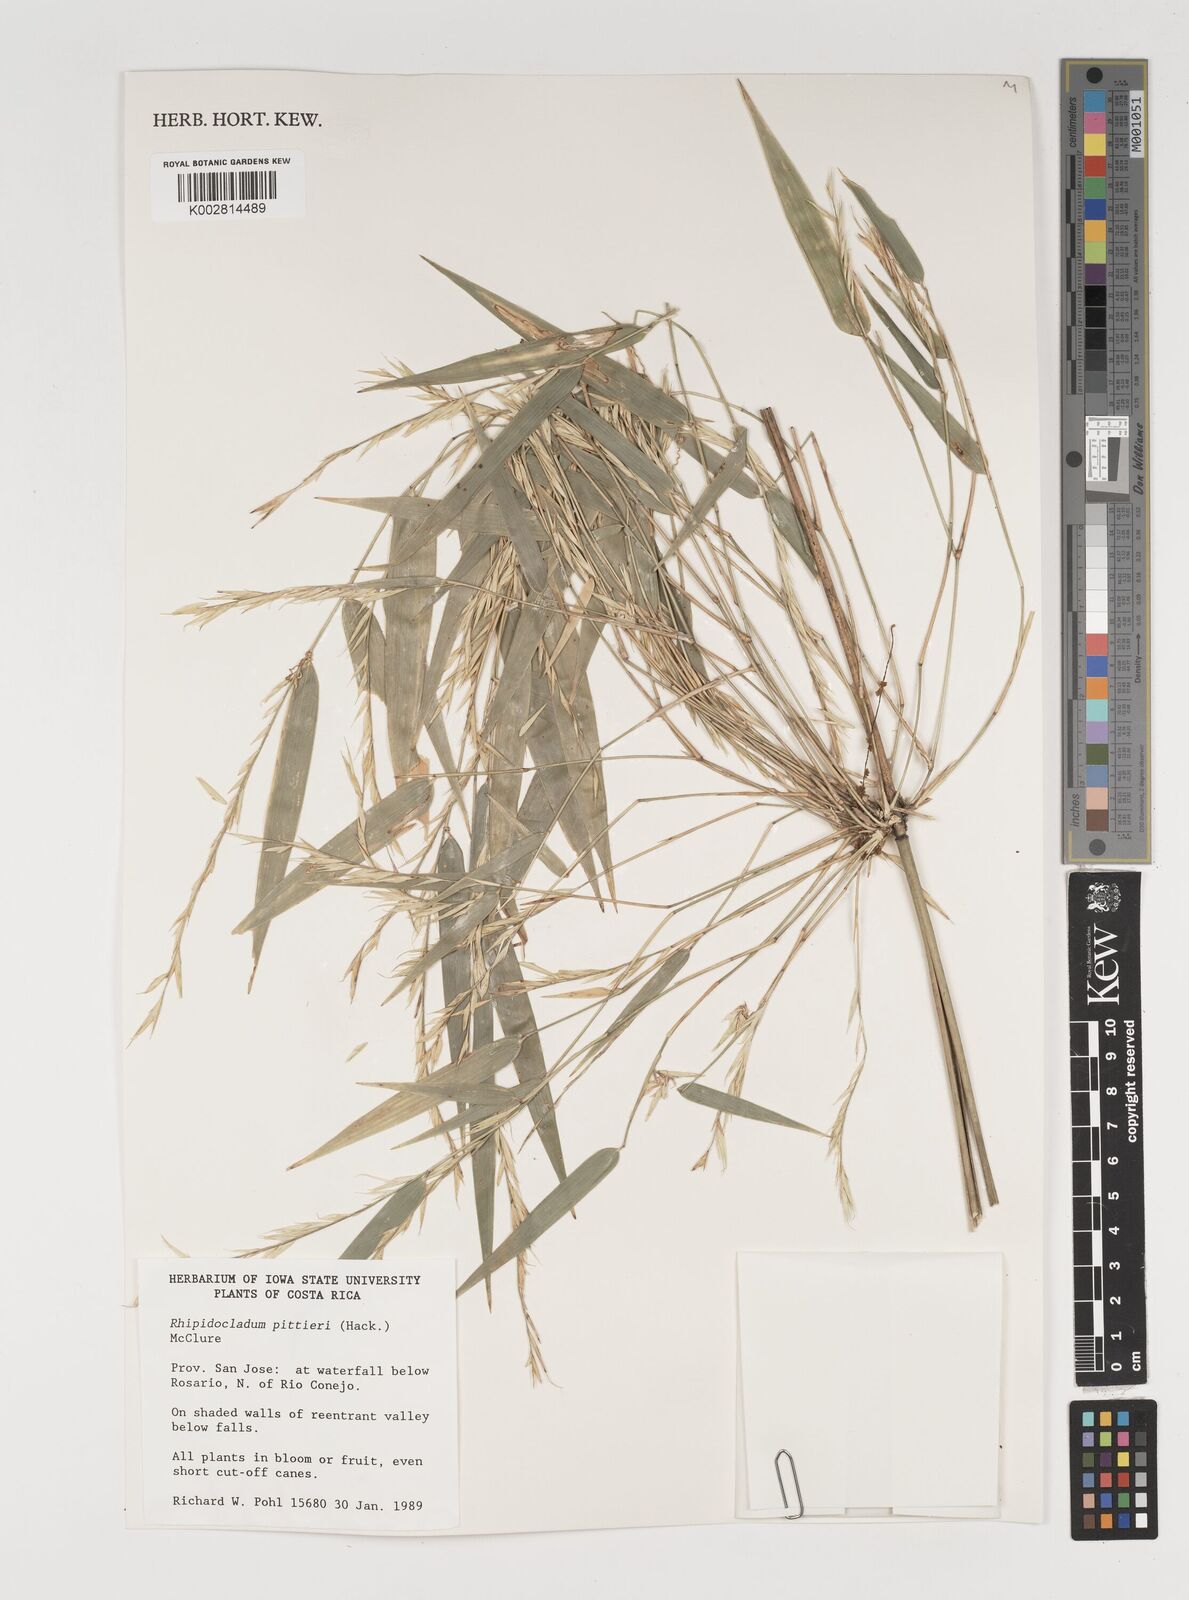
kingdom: Plantae
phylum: Tracheophyta
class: Liliopsida
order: Poales
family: Poaceae
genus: Rhipidocladum
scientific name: Rhipidocladum pittieri
